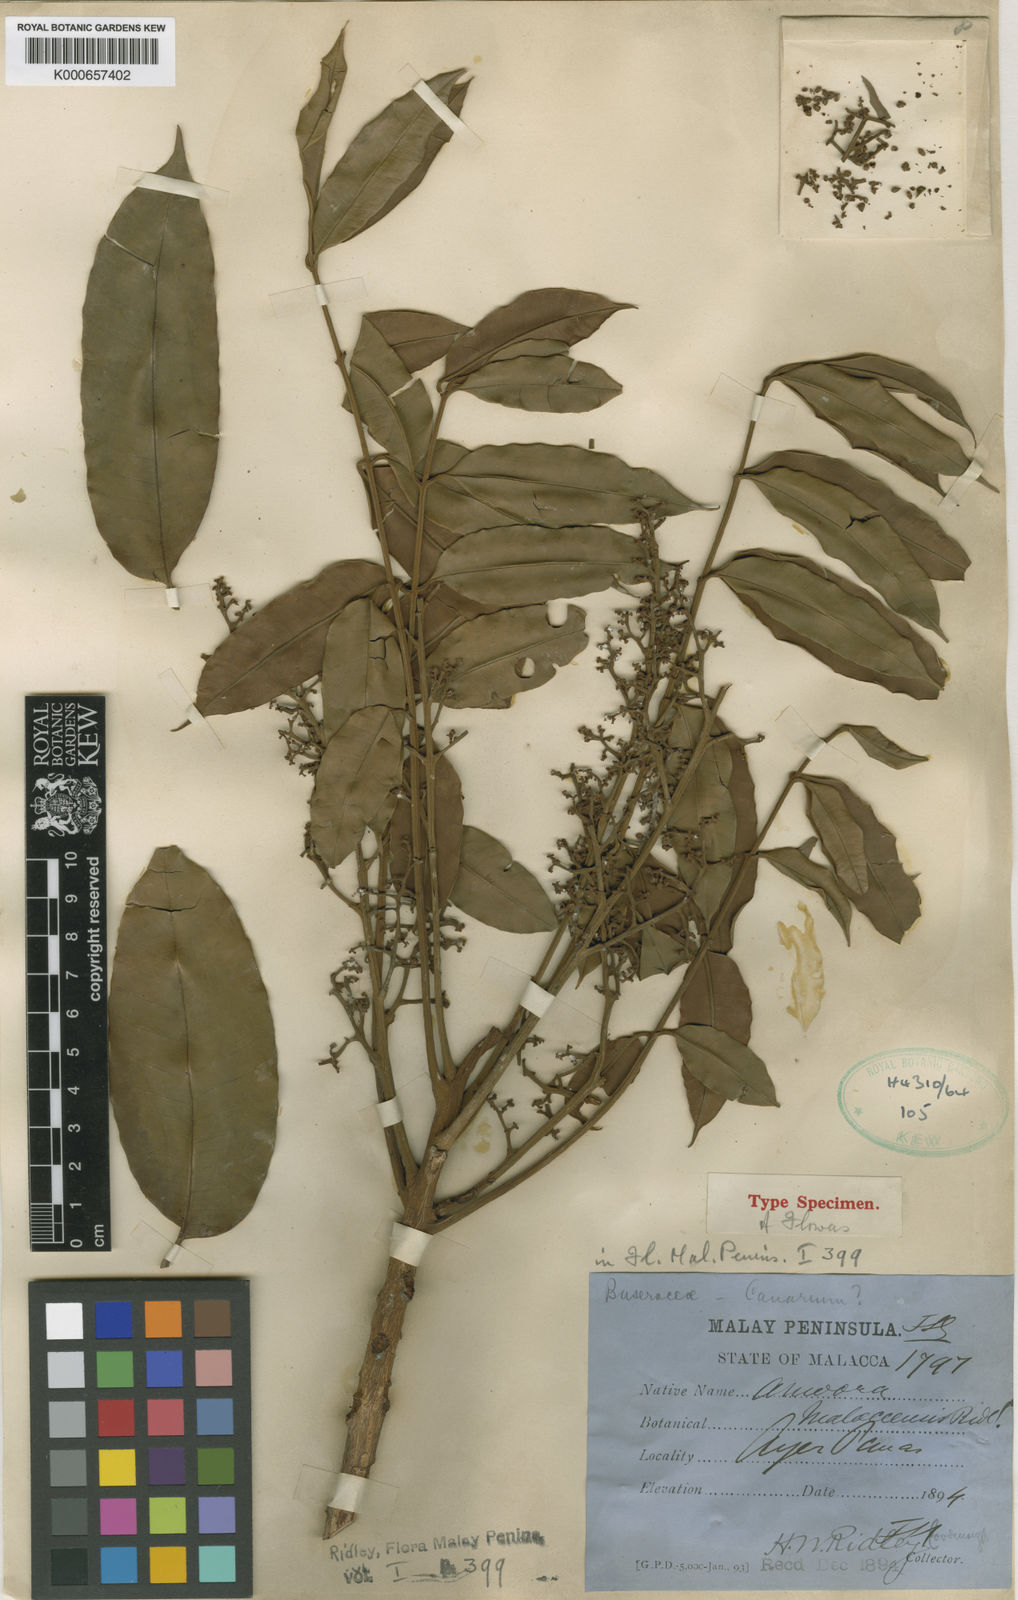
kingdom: Plantae
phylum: Tracheophyta
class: Magnoliopsida
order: Sapindales
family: Meliaceae
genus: Aglaia
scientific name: Aglaia malaccensis
